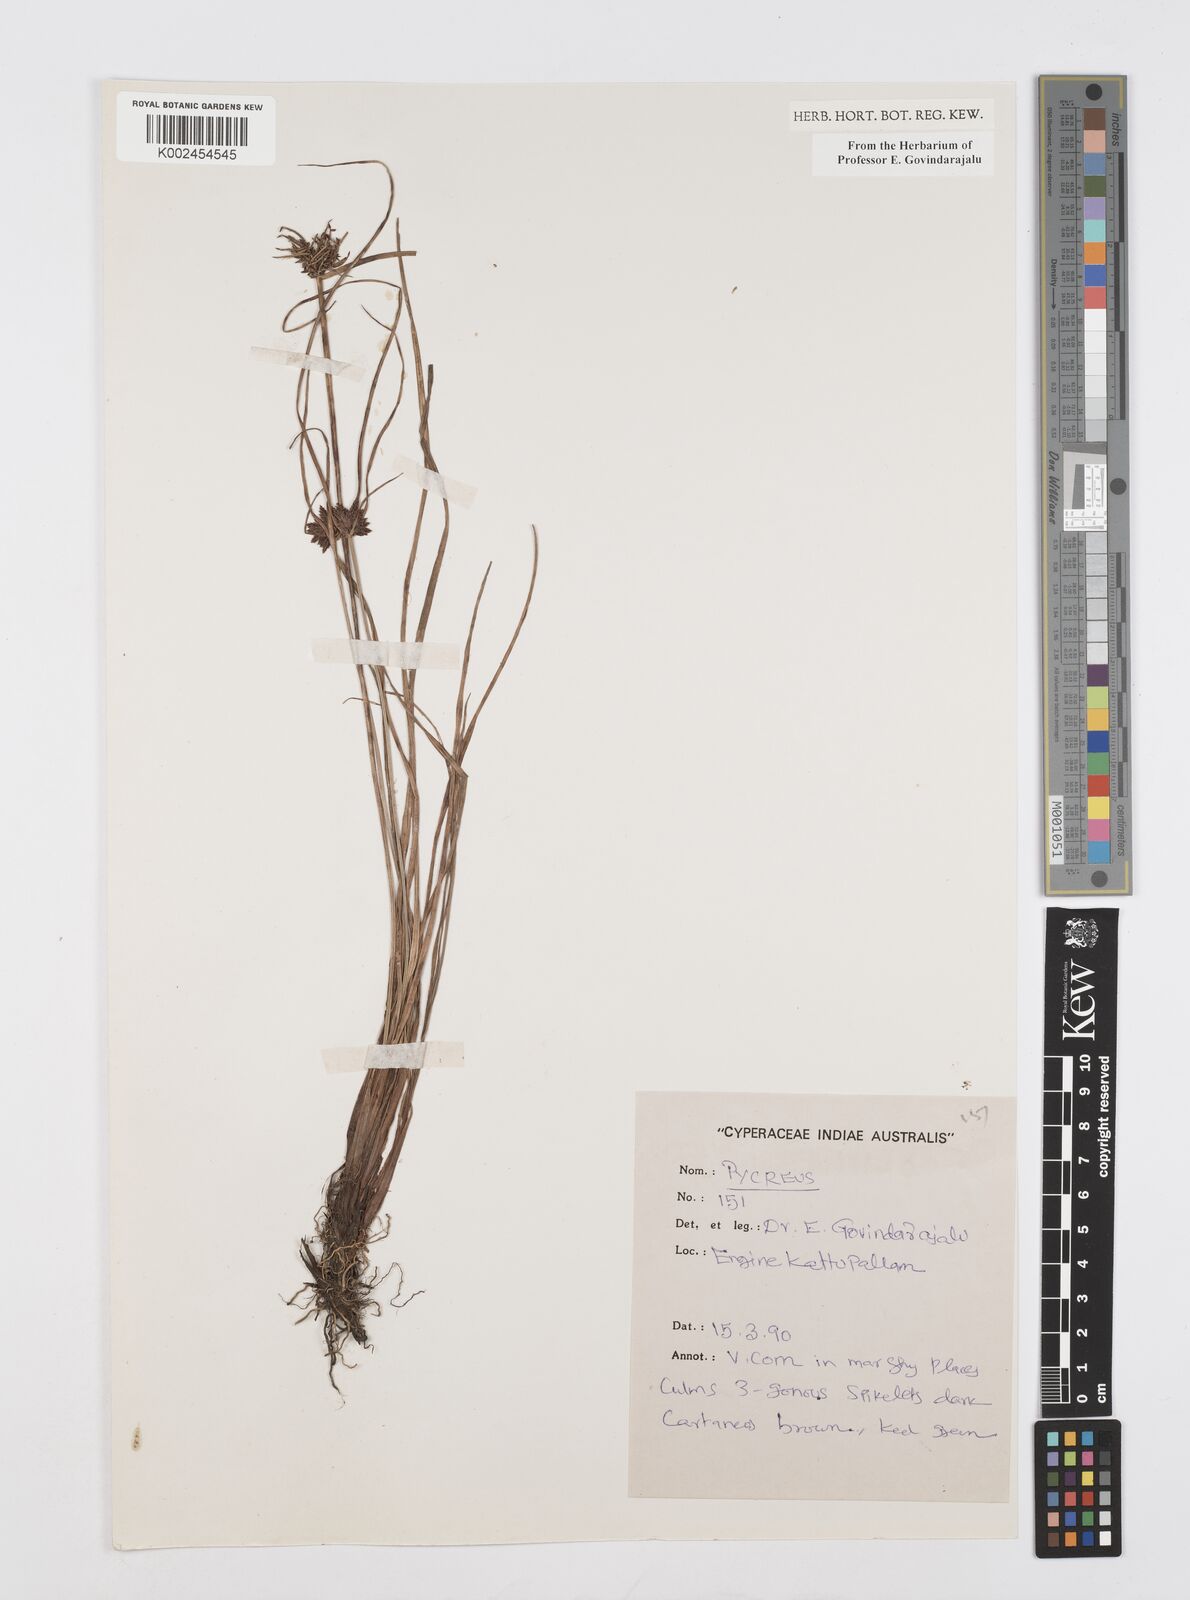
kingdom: Plantae
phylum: Tracheophyta
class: Liliopsida
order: Poales
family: Cyperaceae
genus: Cyperus
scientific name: Cyperus
